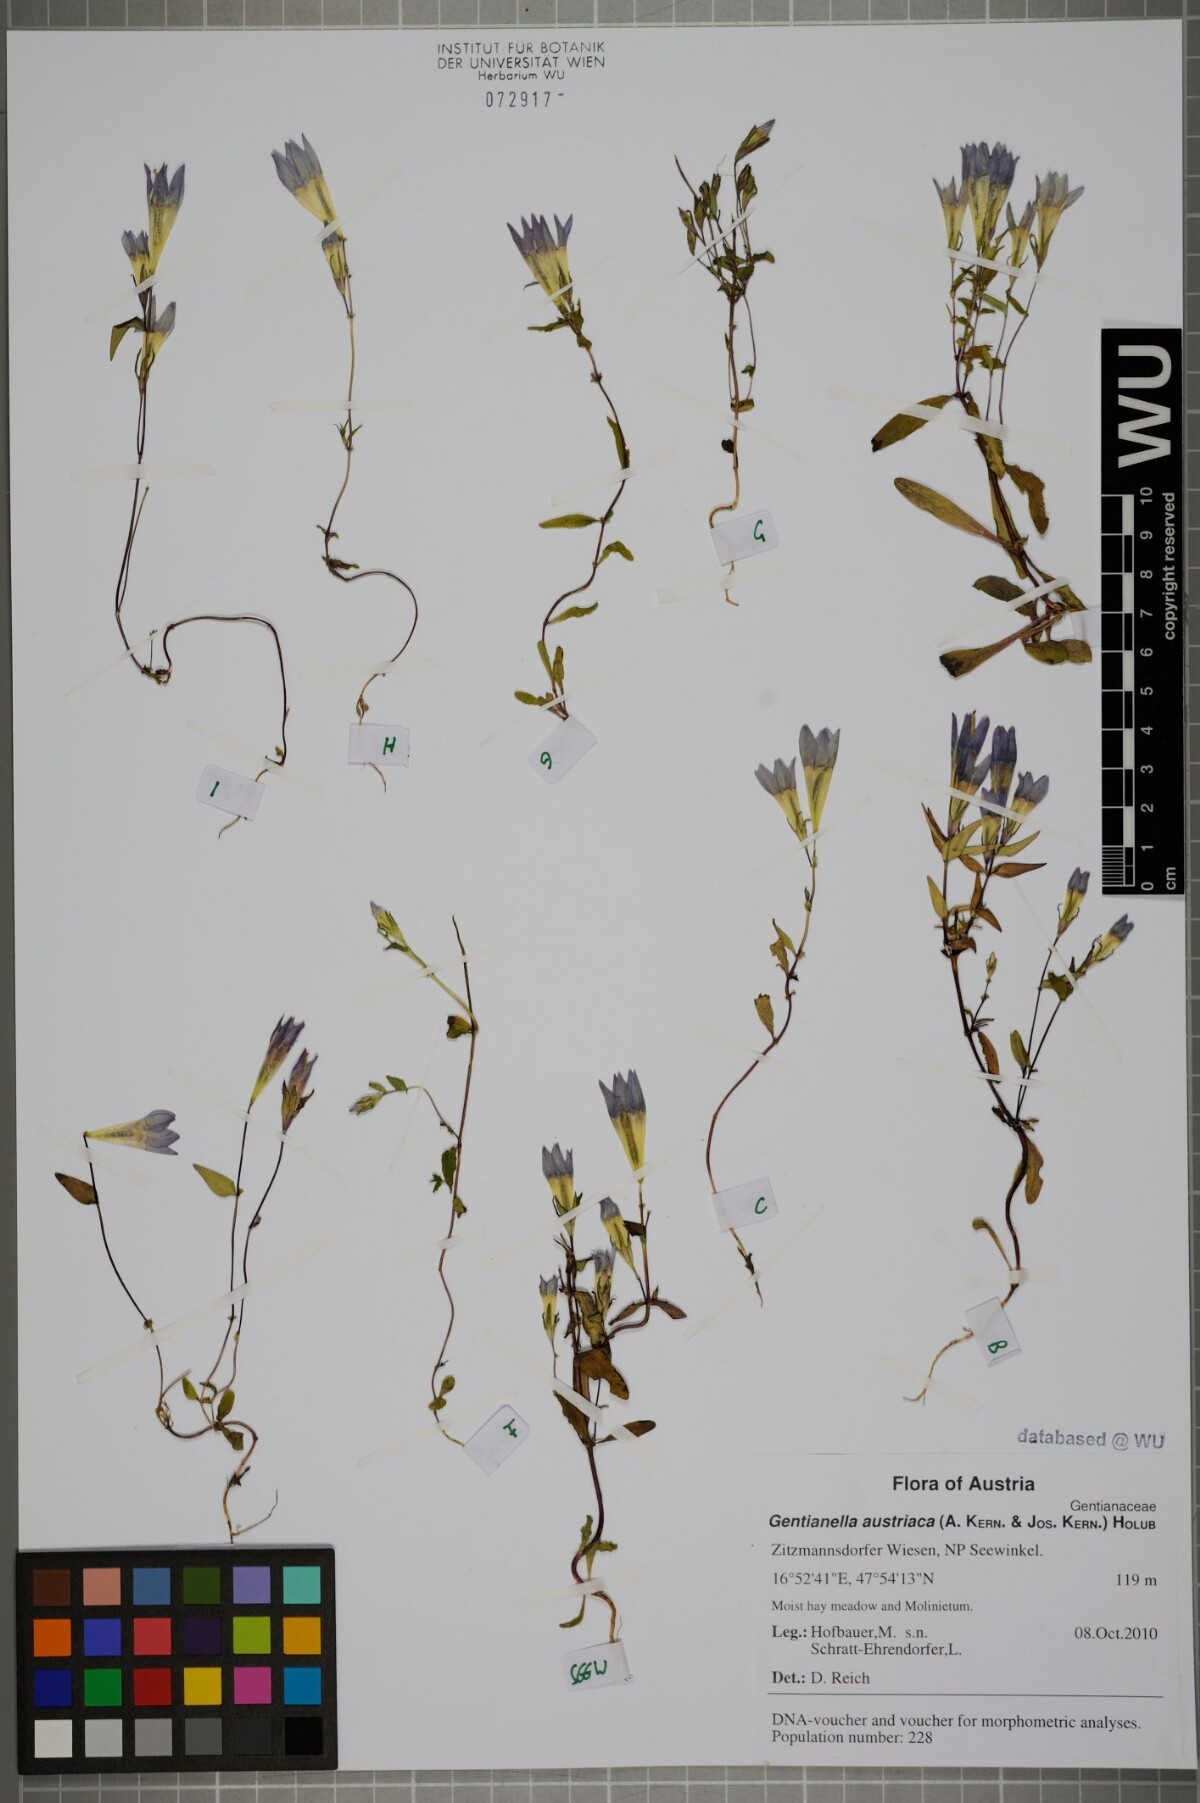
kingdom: Plantae
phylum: Tracheophyta
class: Magnoliopsida
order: Gentianales
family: Gentianaceae
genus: Gentianella
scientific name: Gentianella austriaca
